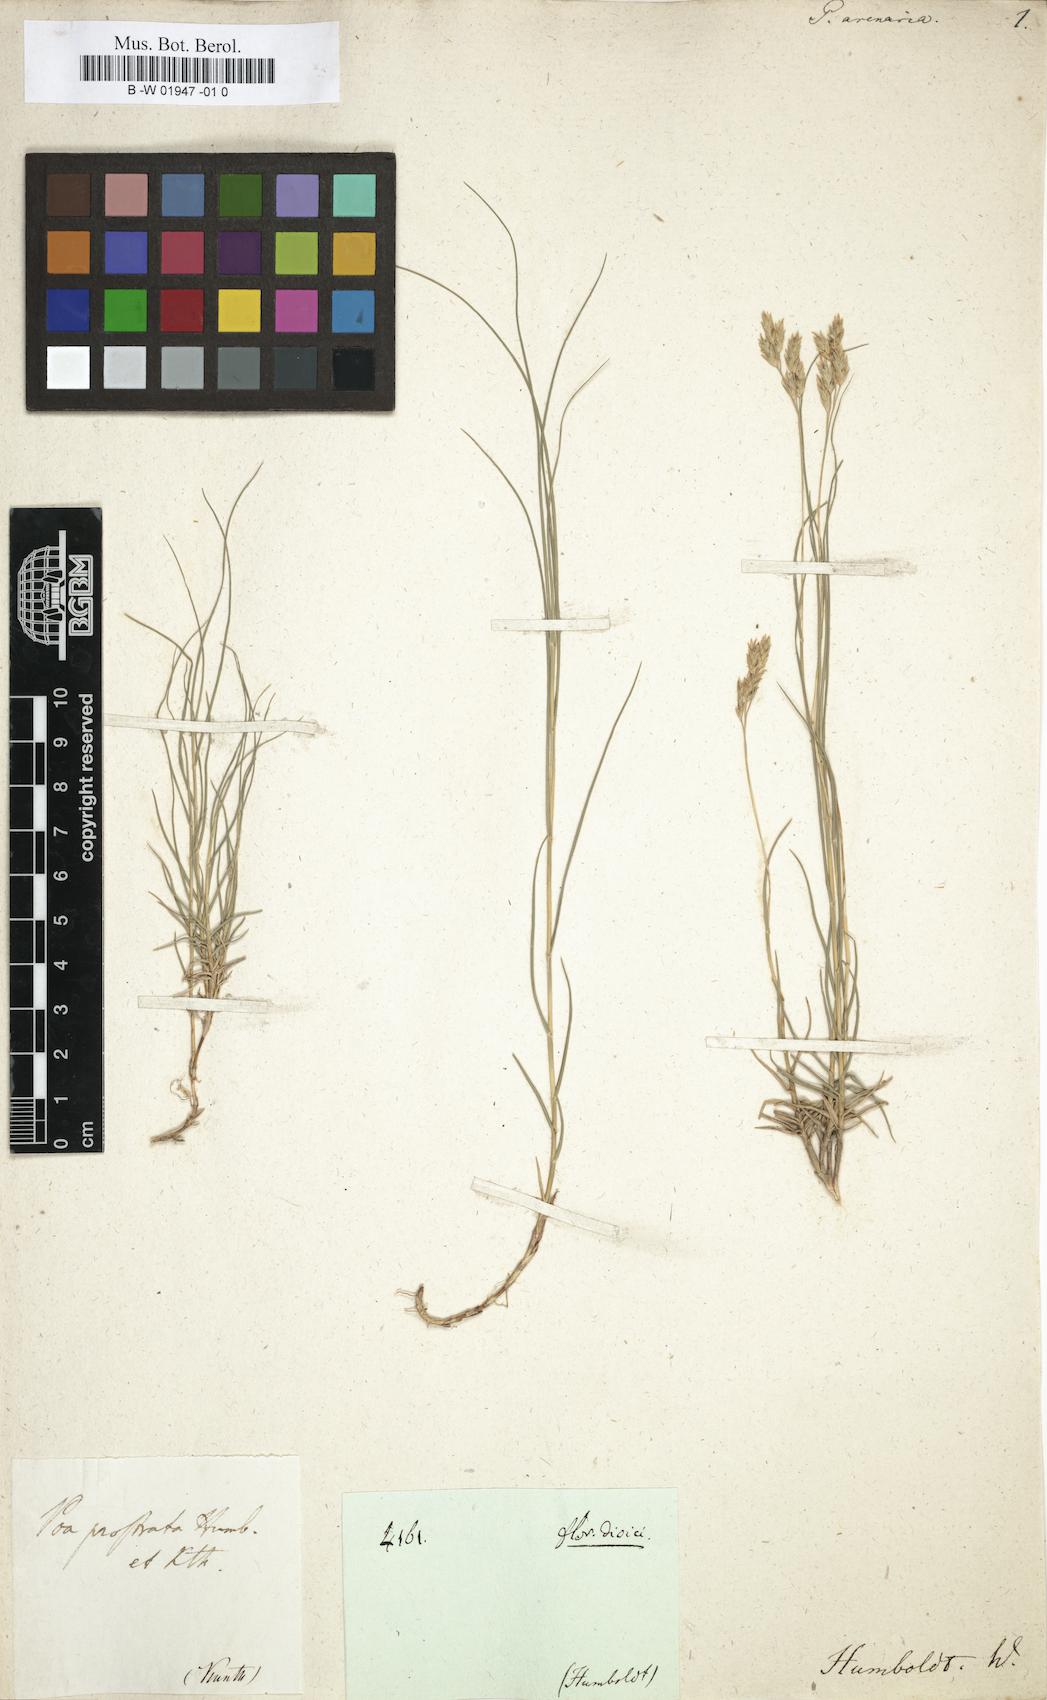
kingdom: Plantae
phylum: Tracheophyta
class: Liliopsida
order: Poales
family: Poaceae
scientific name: Poaceae
